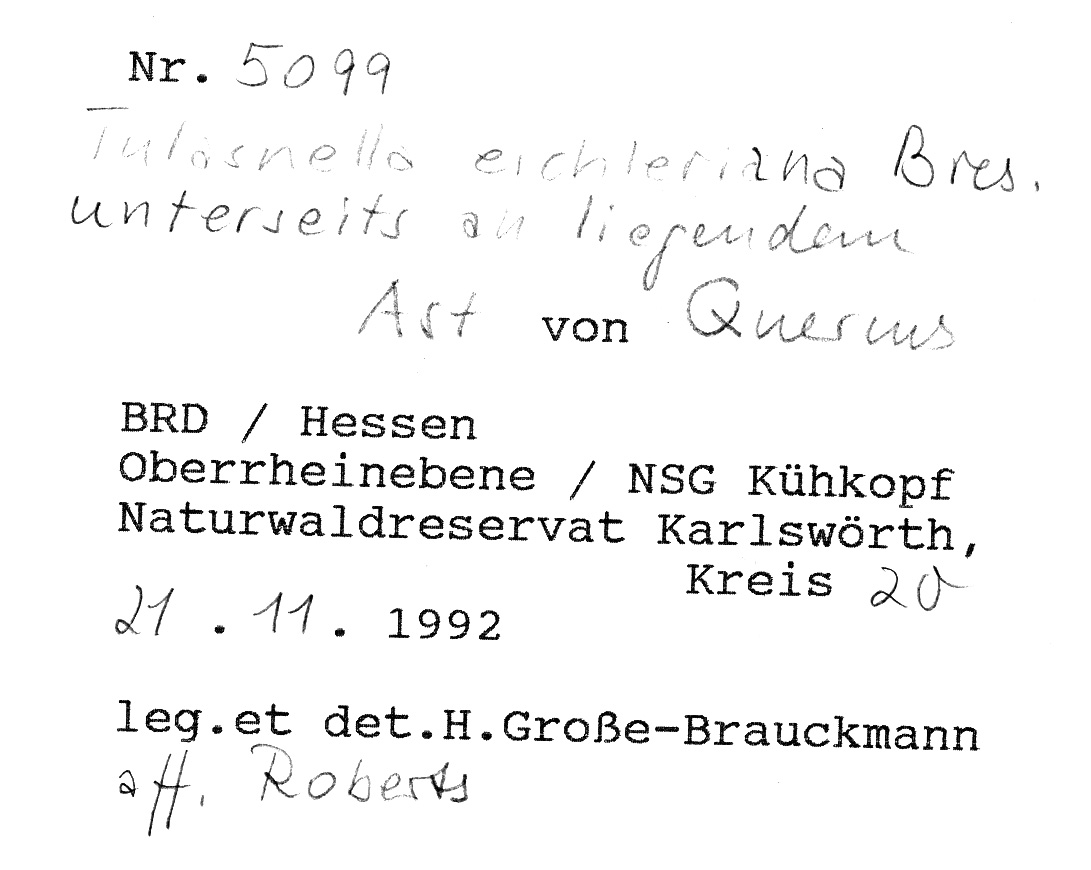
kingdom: Plantae
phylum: Tracheophyta
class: Magnoliopsida
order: Fagales
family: Fagaceae
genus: Quercus
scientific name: Quercus
